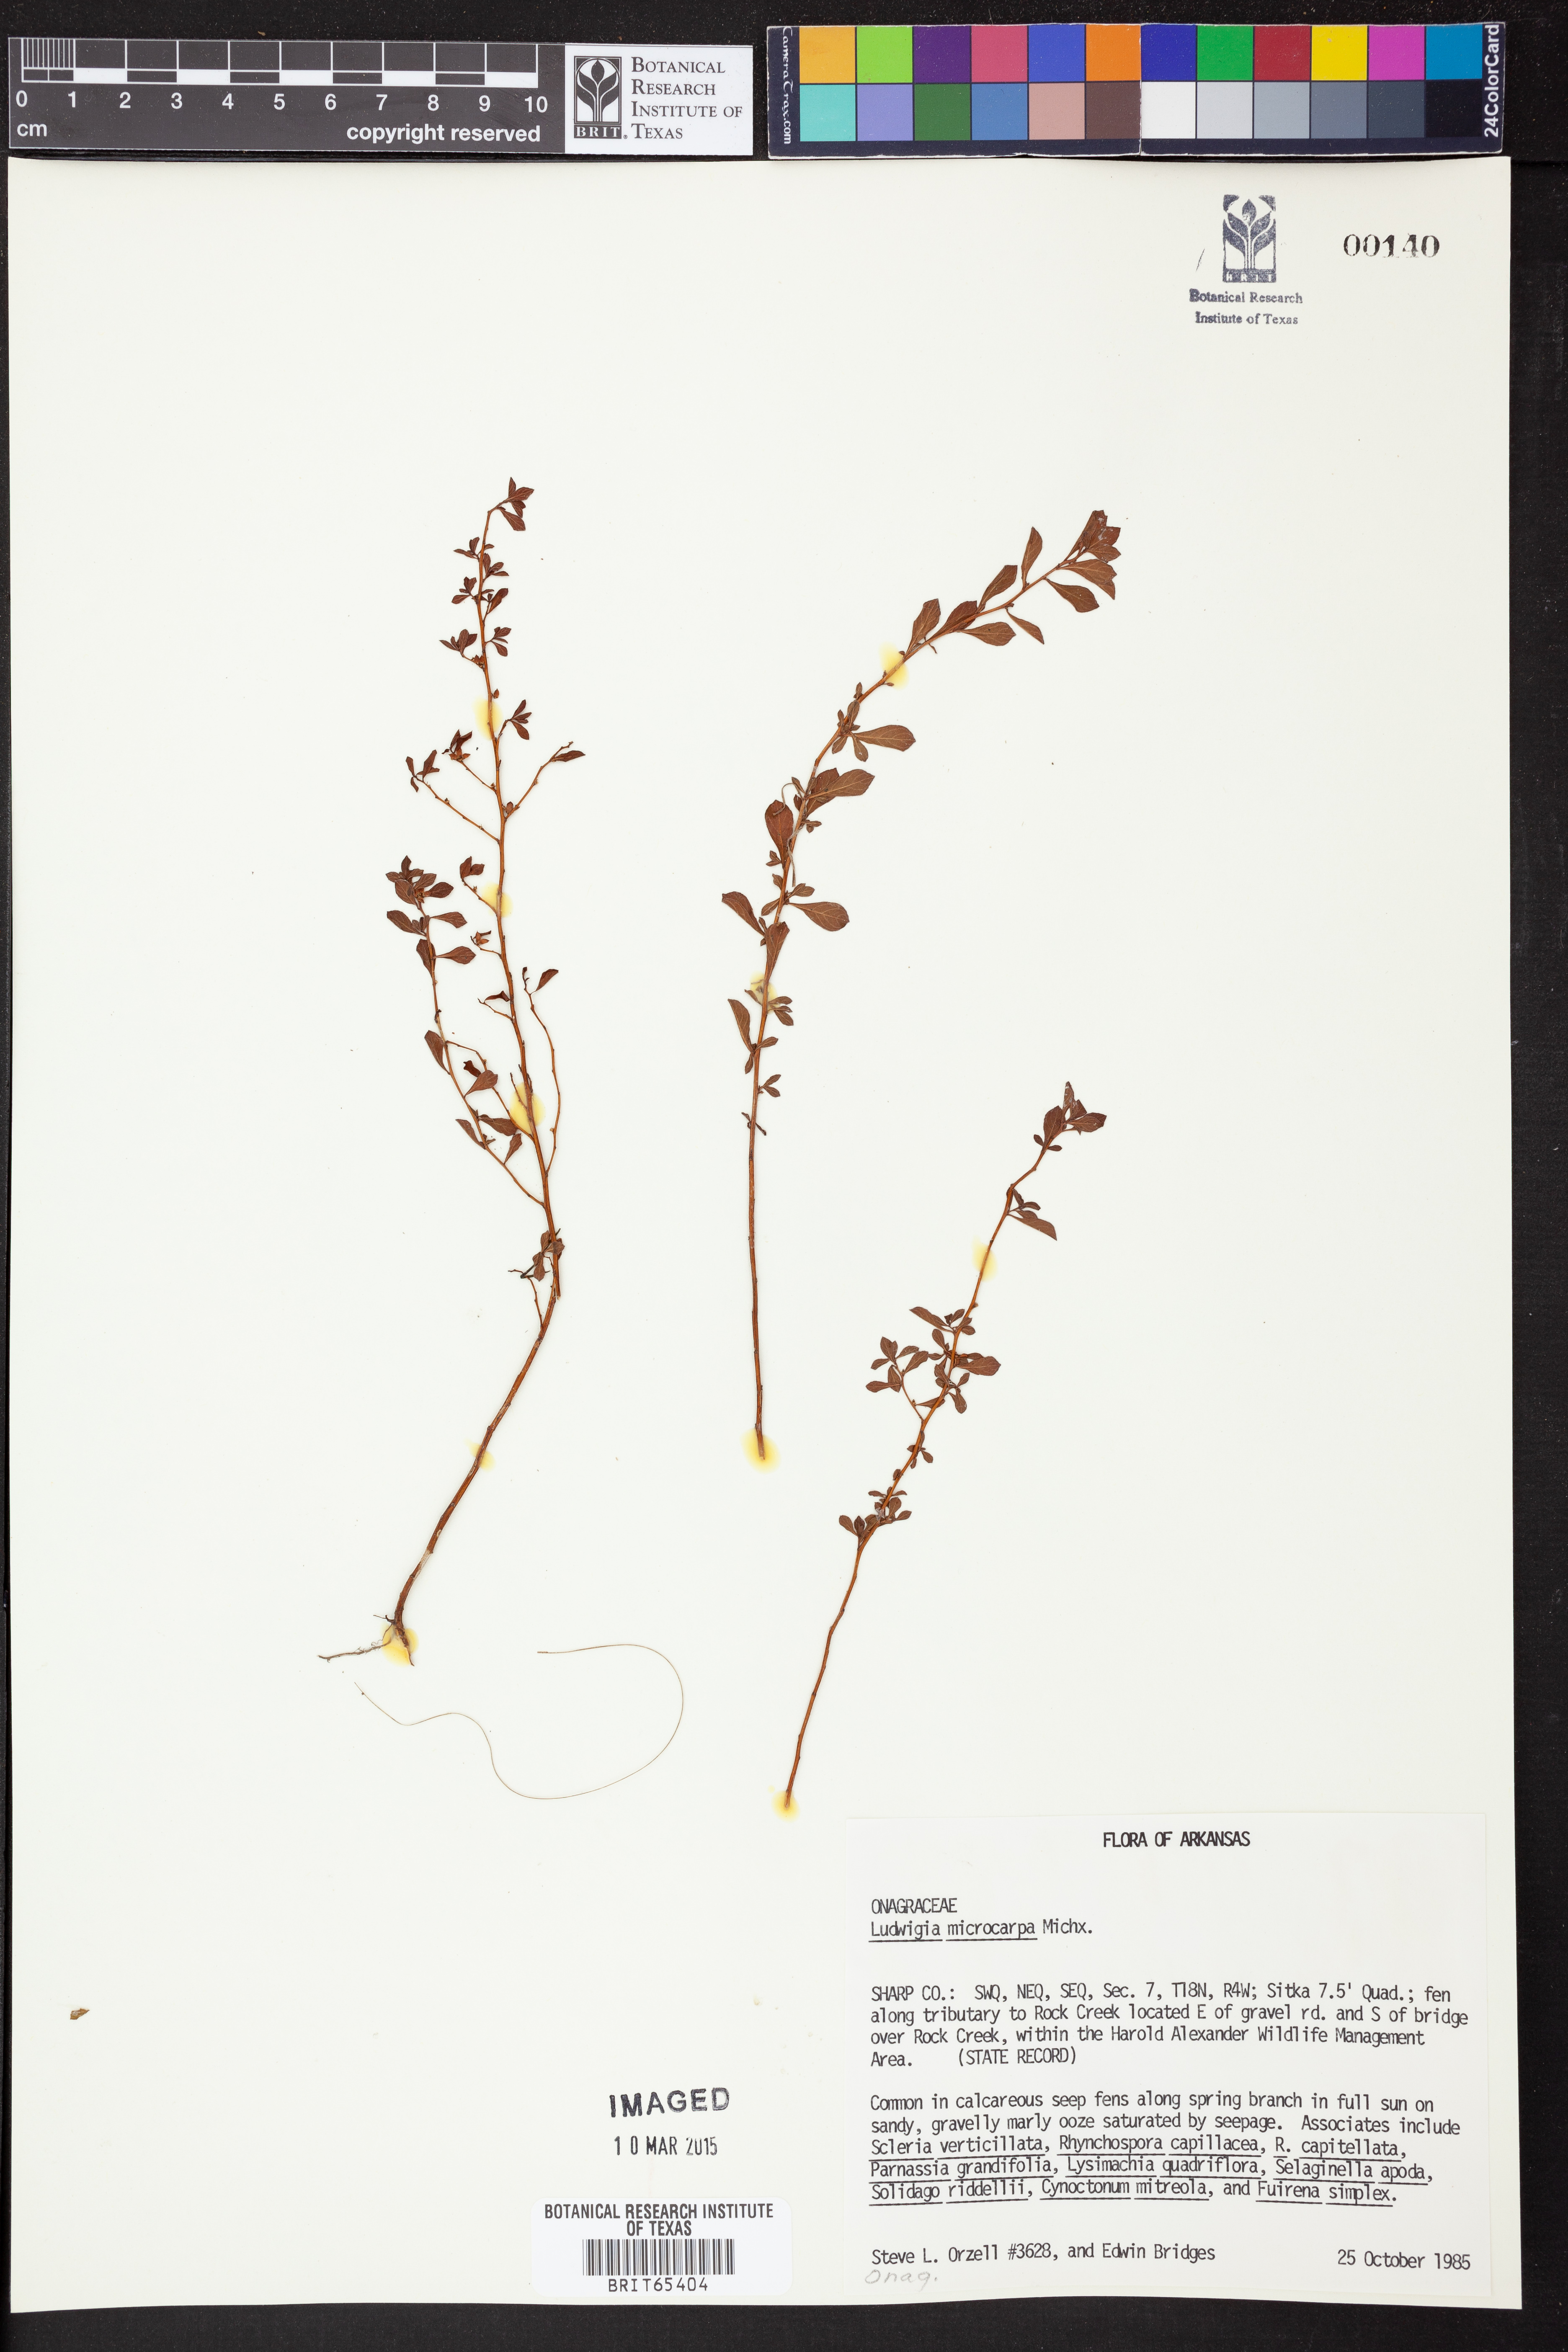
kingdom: Plantae
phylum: Tracheophyta
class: Magnoliopsida
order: Myrtales
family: Onagraceae
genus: Ludwigia
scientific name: Ludwigia microcarpa
